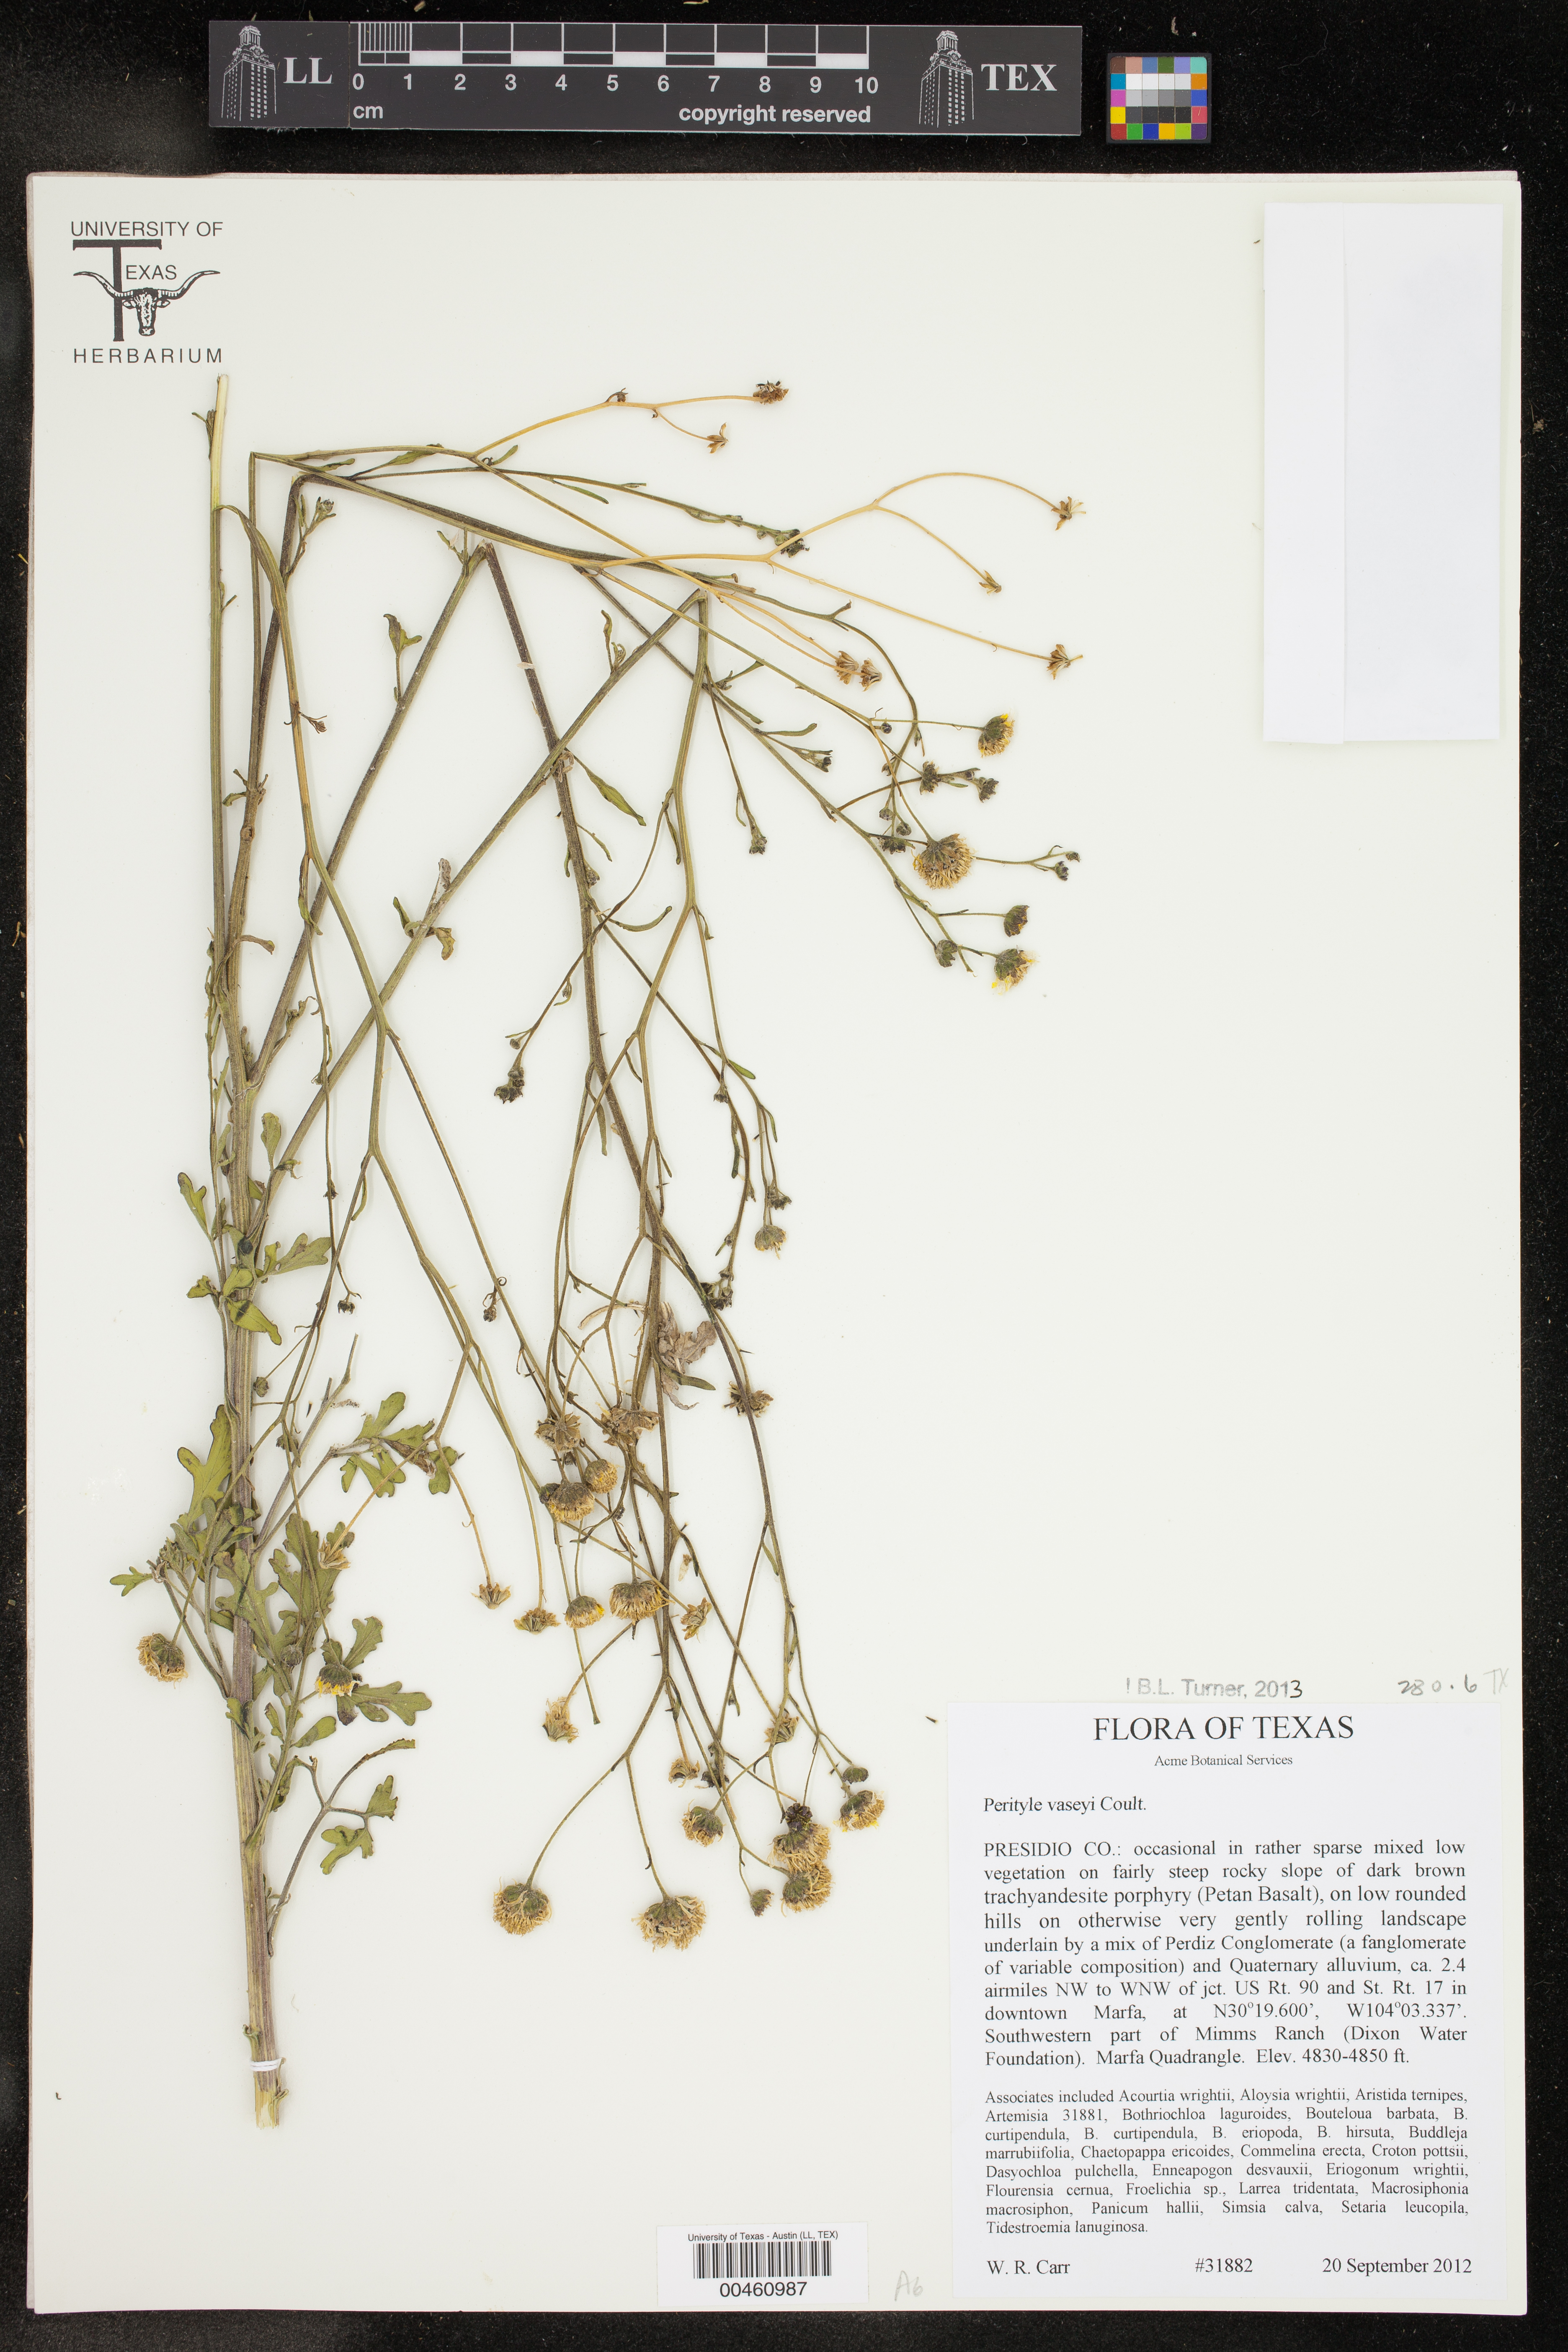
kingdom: Plantae
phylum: Tracheophyta
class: Magnoliopsida
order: Asterales
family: Asteraceae
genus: Laphamia
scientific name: Laphamia vaseyi
